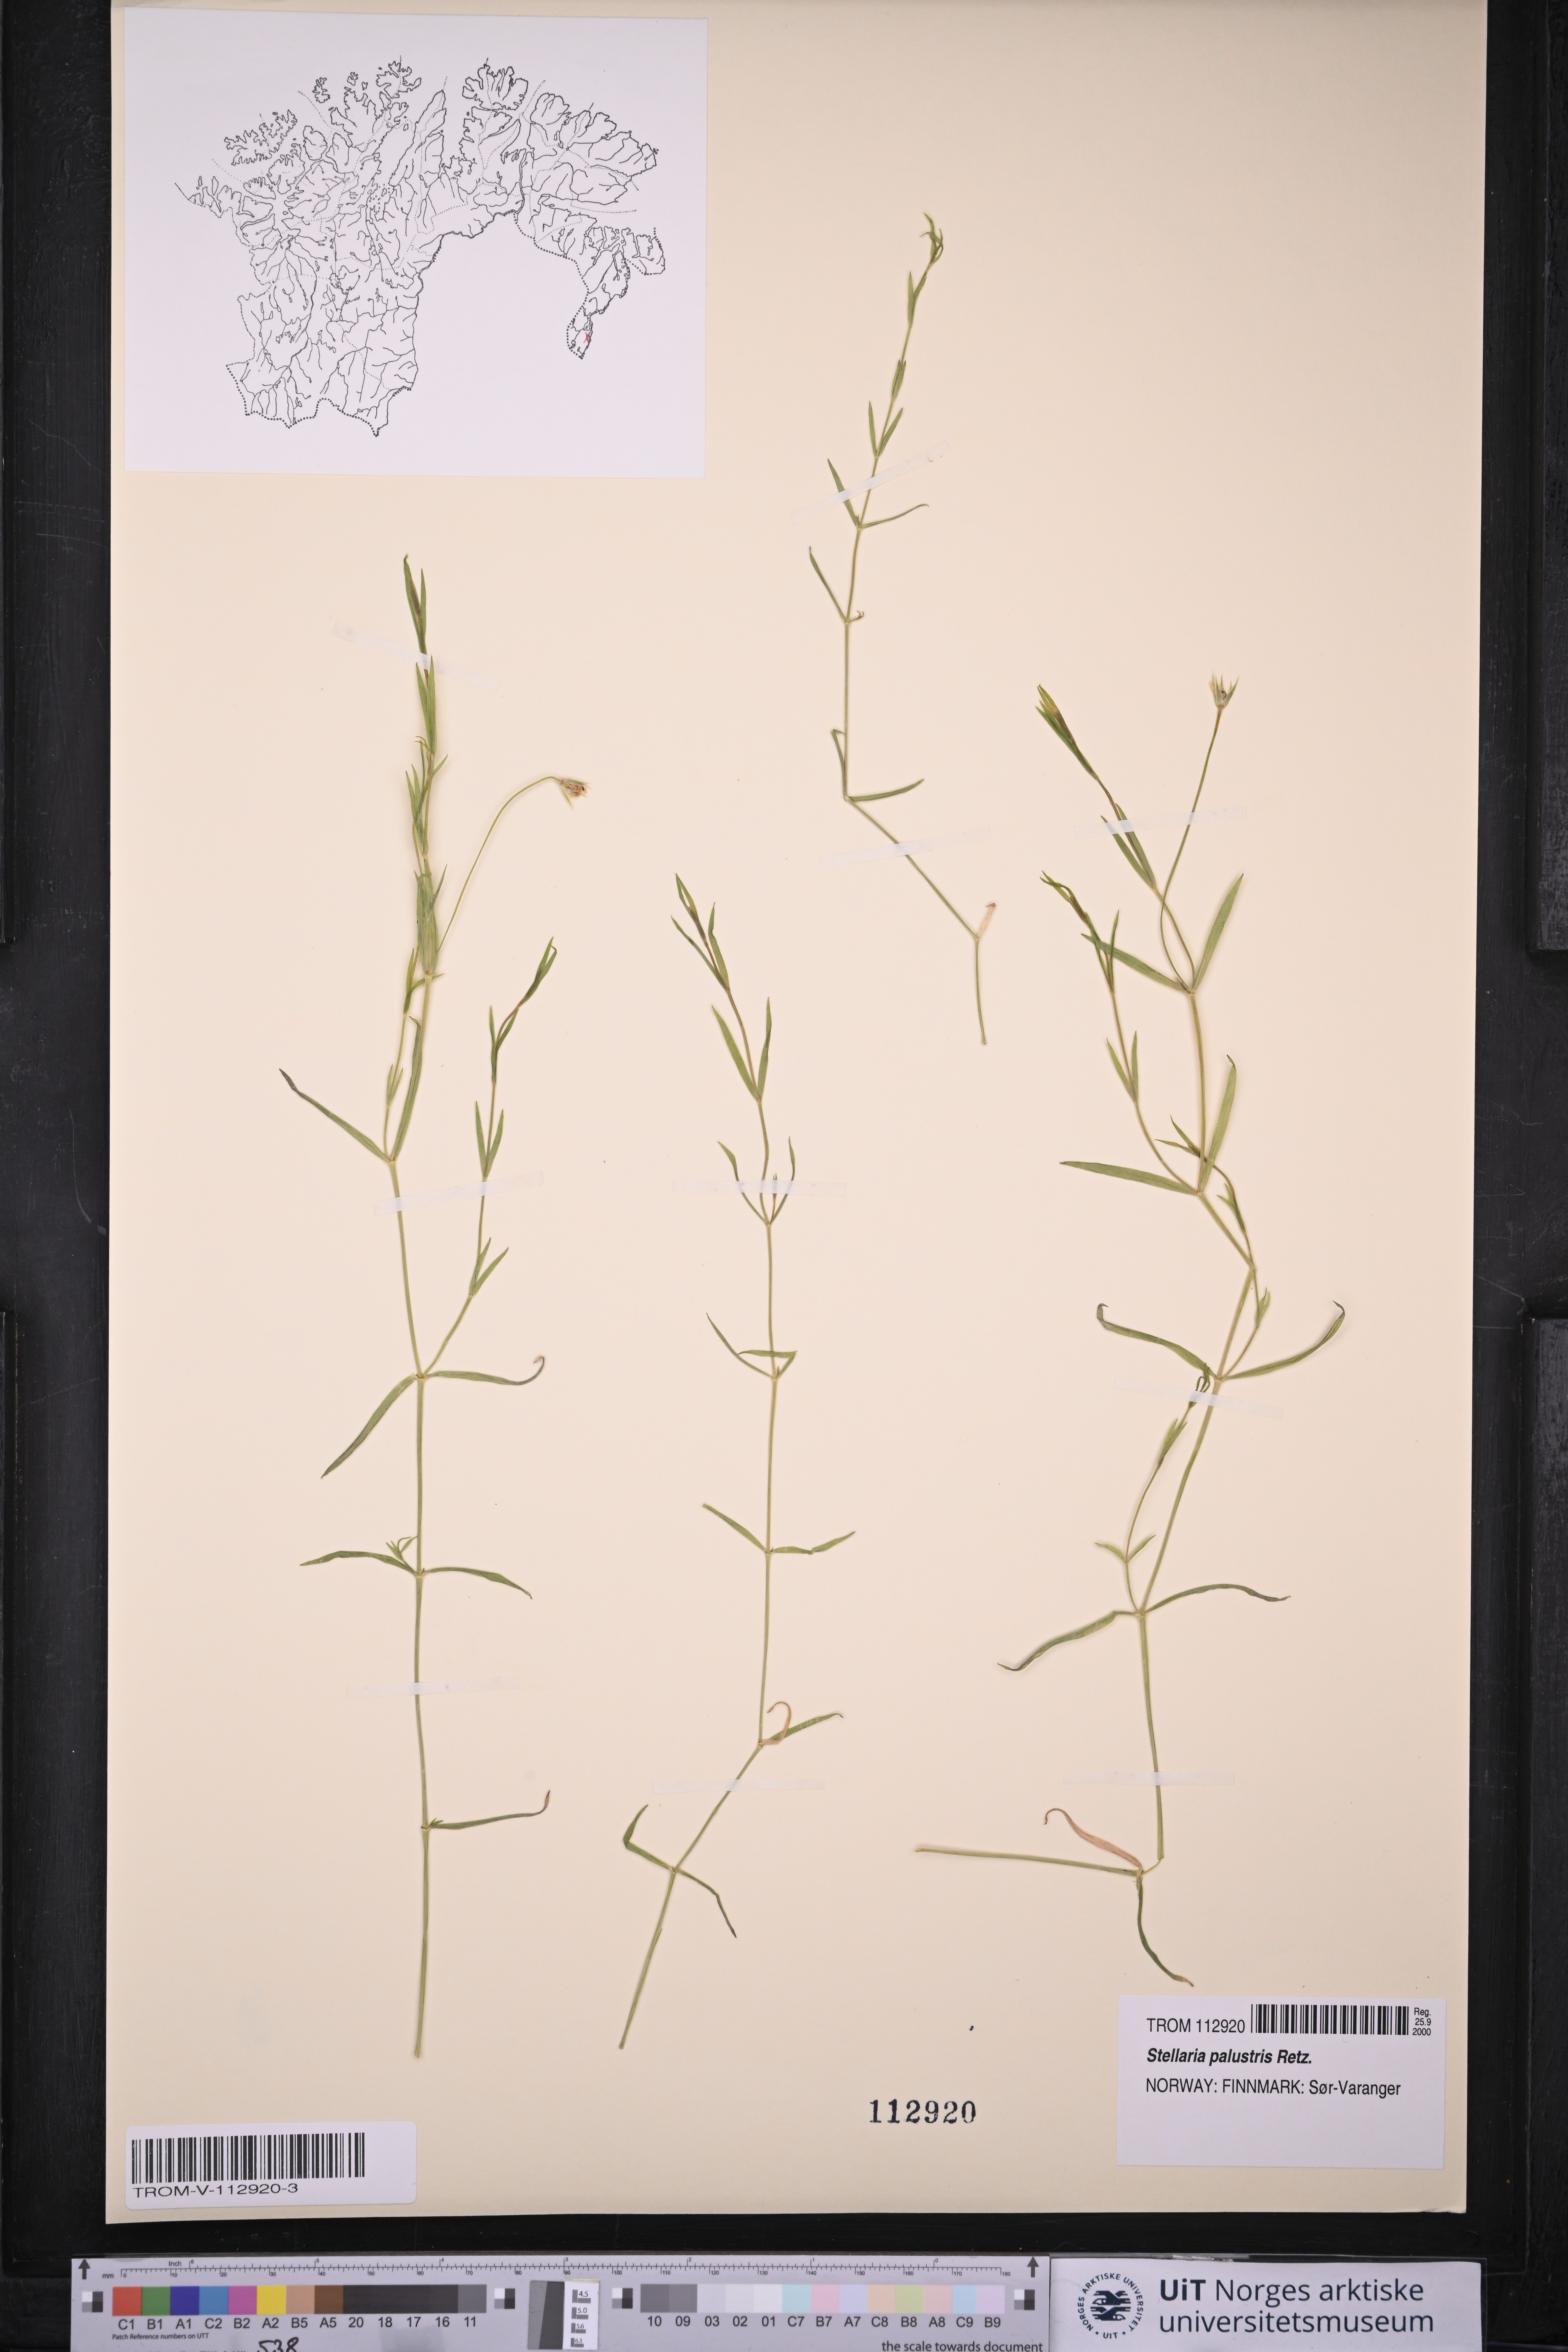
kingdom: Plantae
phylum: Tracheophyta
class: Magnoliopsida
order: Caryophyllales
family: Caryophyllaceae
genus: Stellaria
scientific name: Stellaria palustris
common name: Marsh stitchwort
